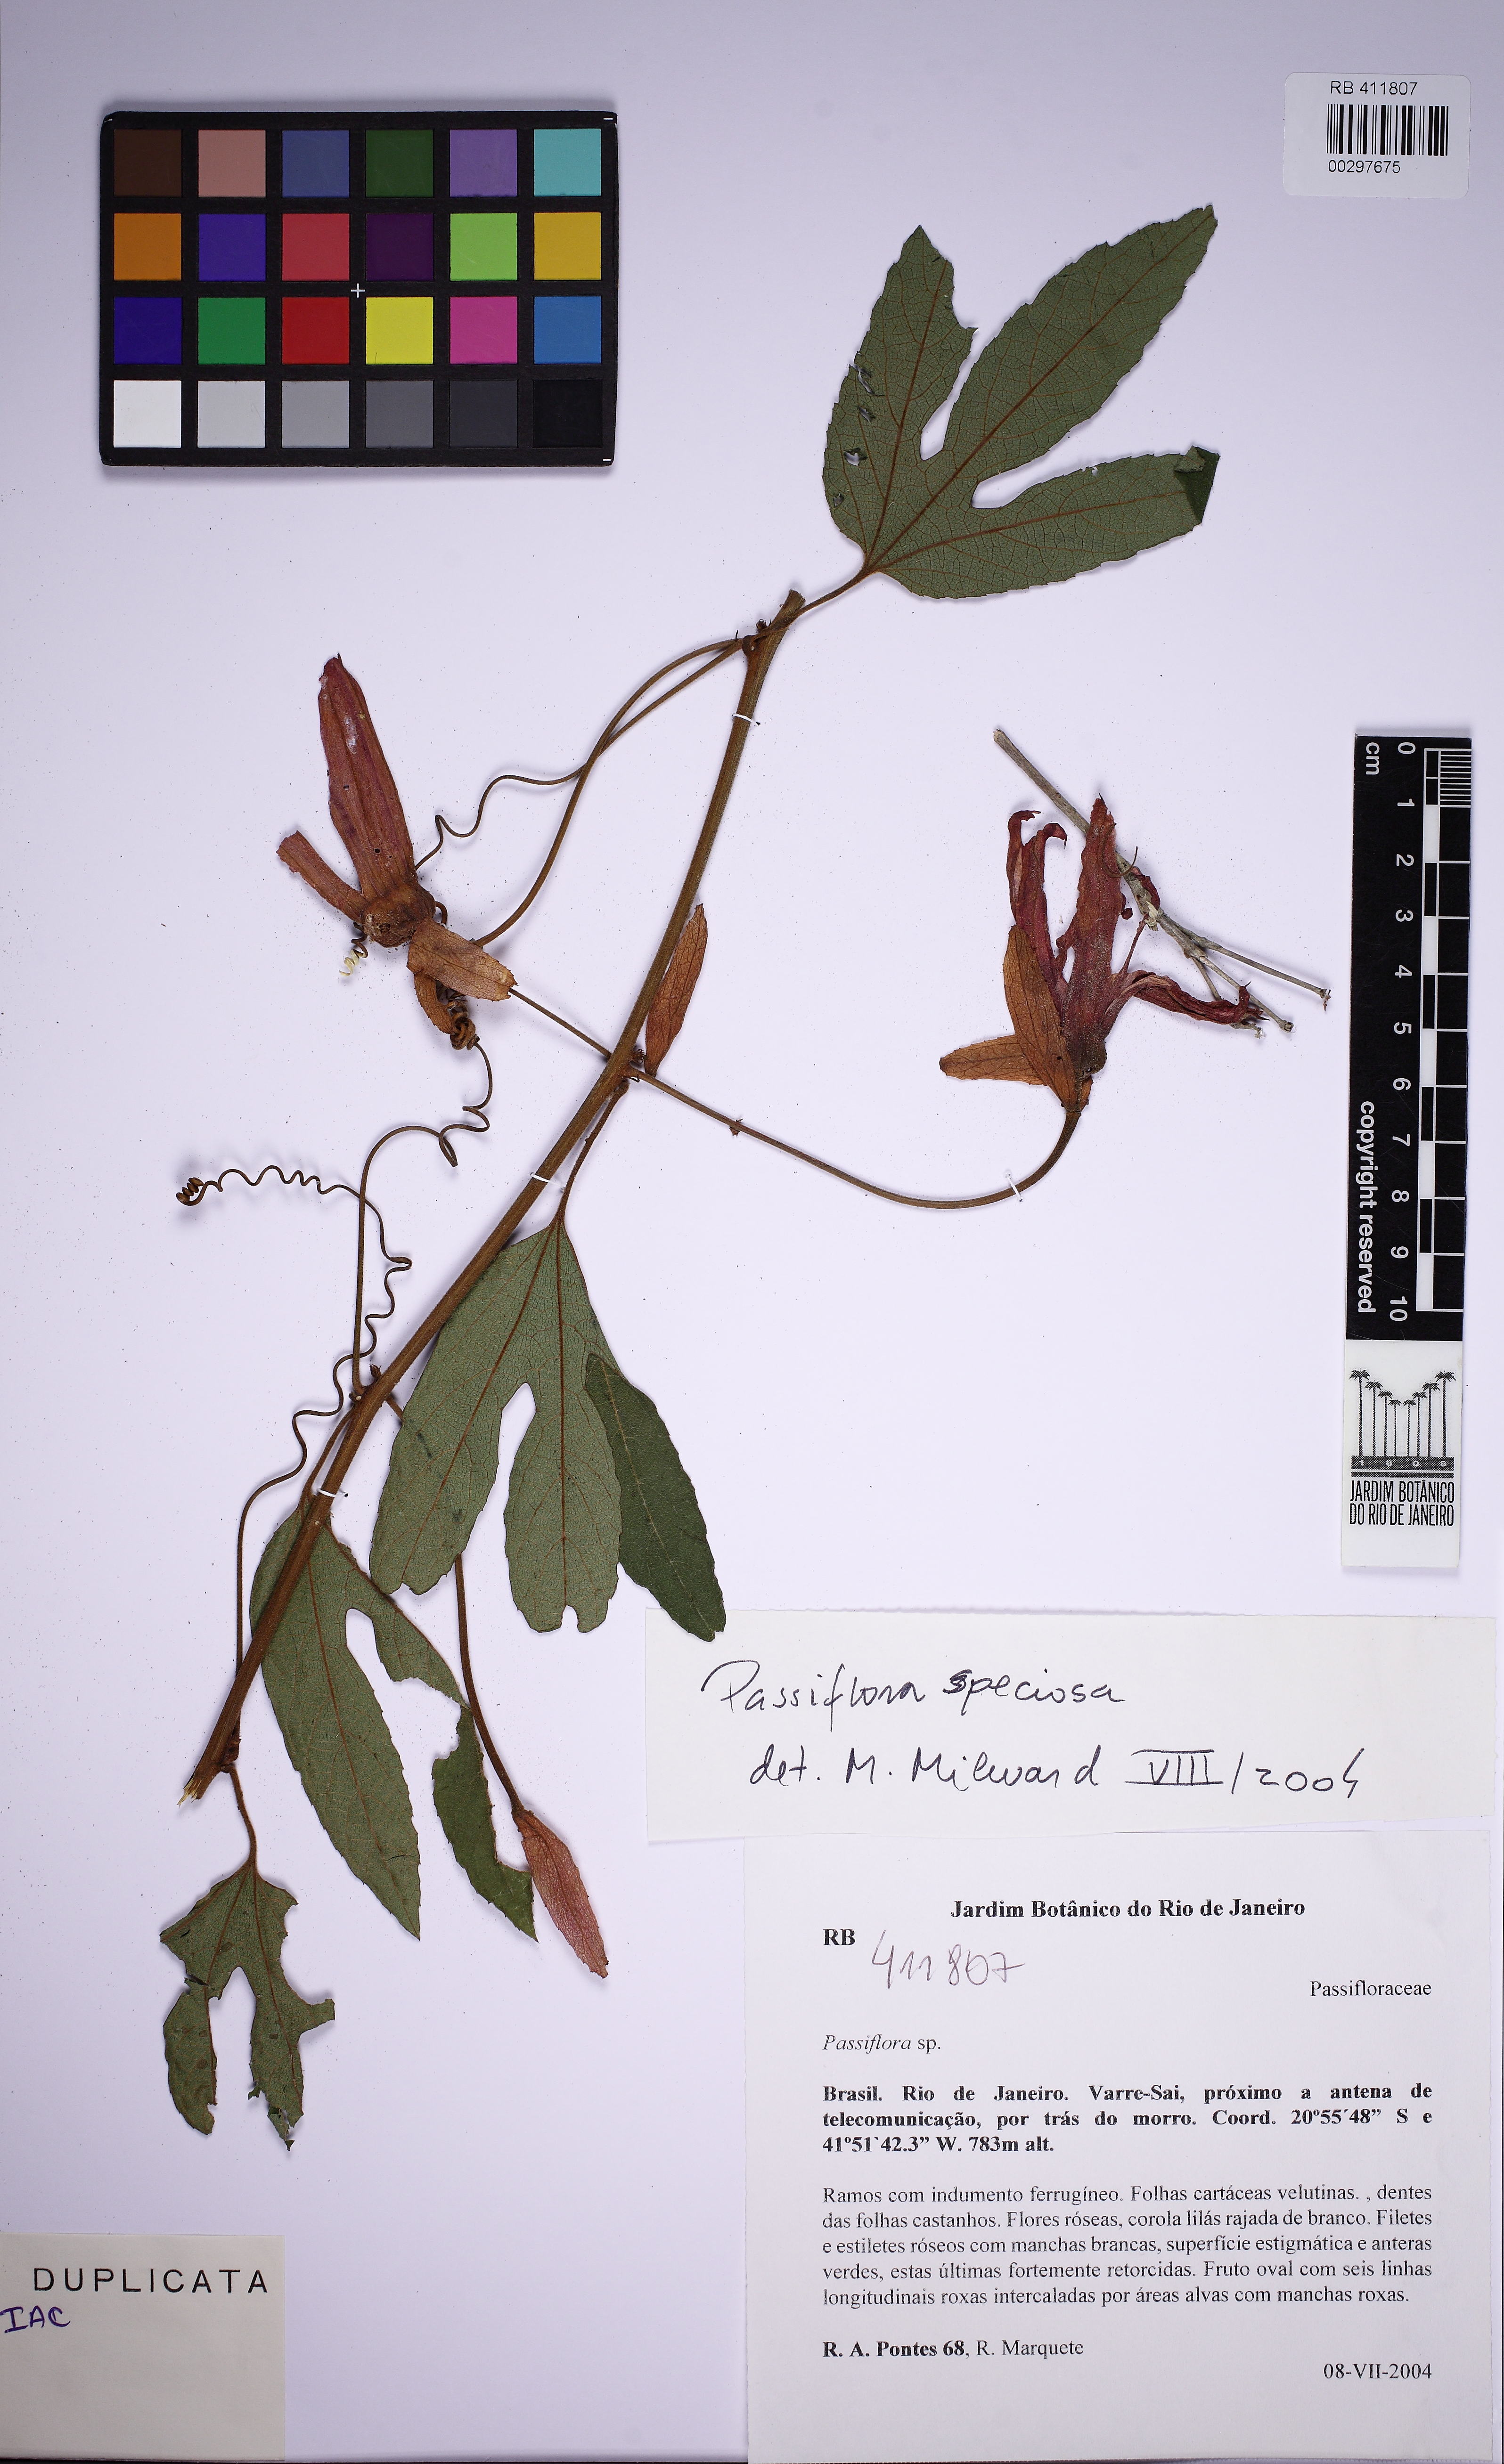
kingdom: Plantae
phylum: Tracheophyta
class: Magnoliopsida
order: Malpighiales
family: Passifloraceae
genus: Passiflora
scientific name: Passiflora speciosa
